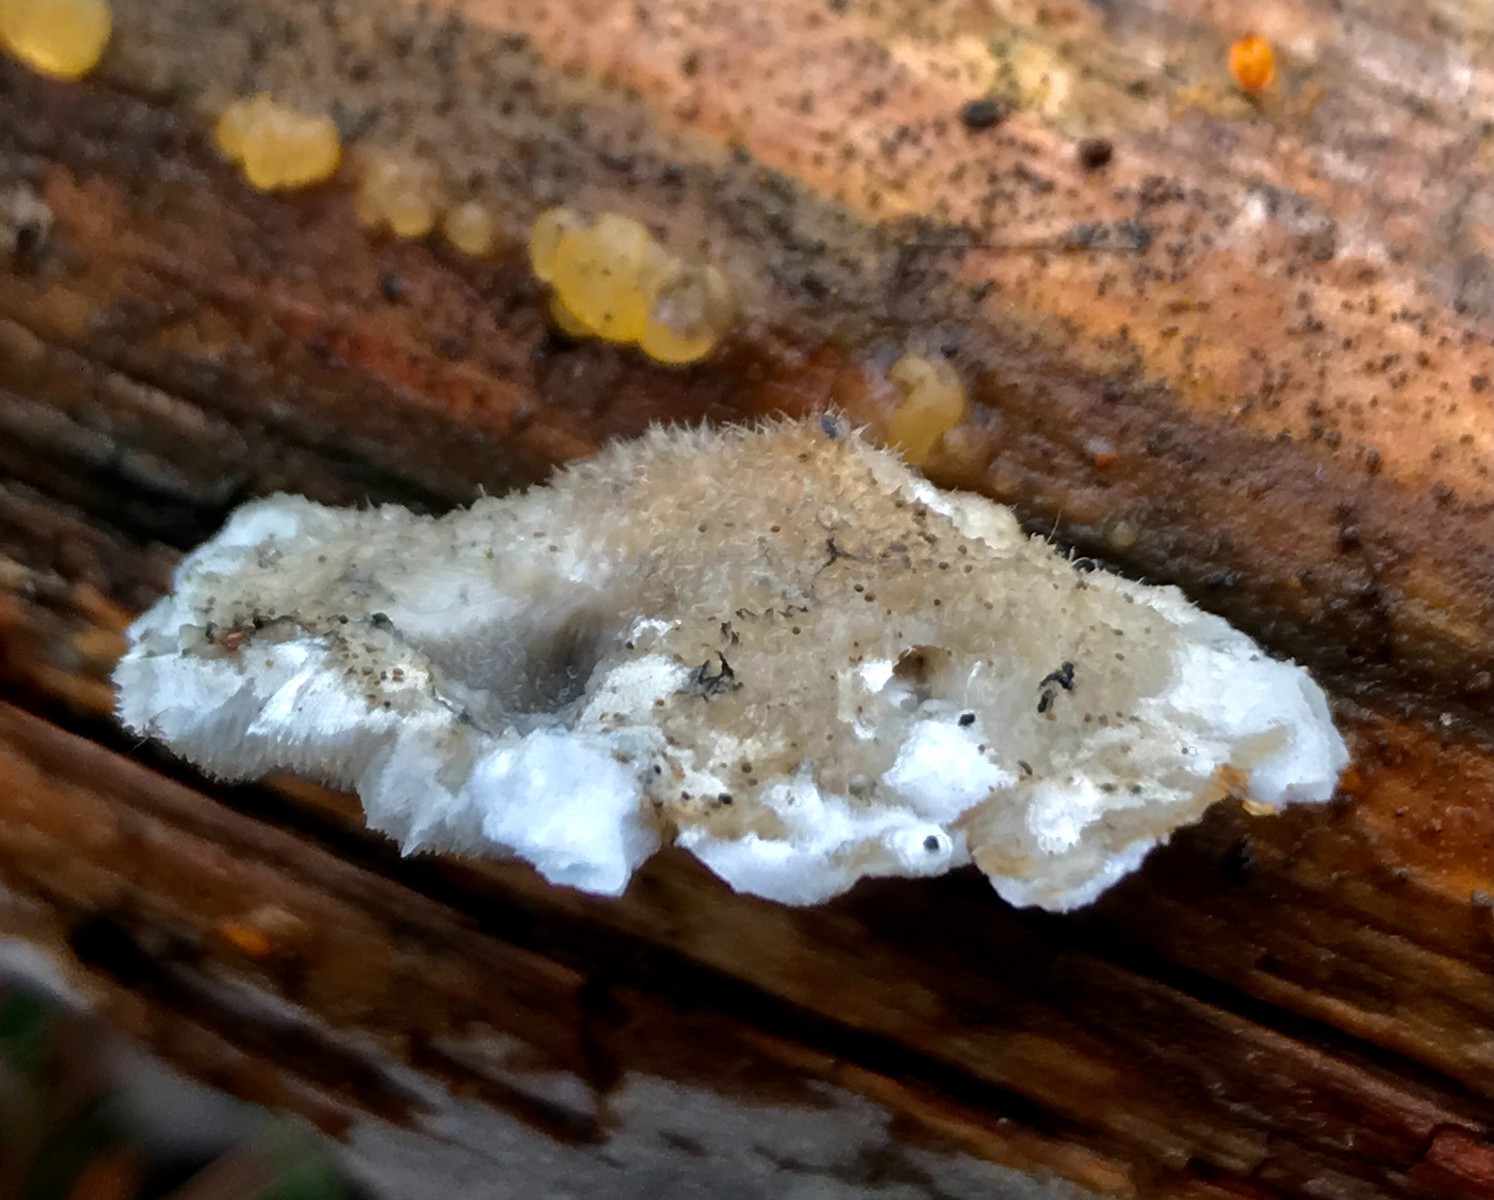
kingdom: Fungi
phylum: Basidiomycota
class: Agaricomycetes
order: Polyporales
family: Dacryobolaceae
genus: Postia
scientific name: Postia
